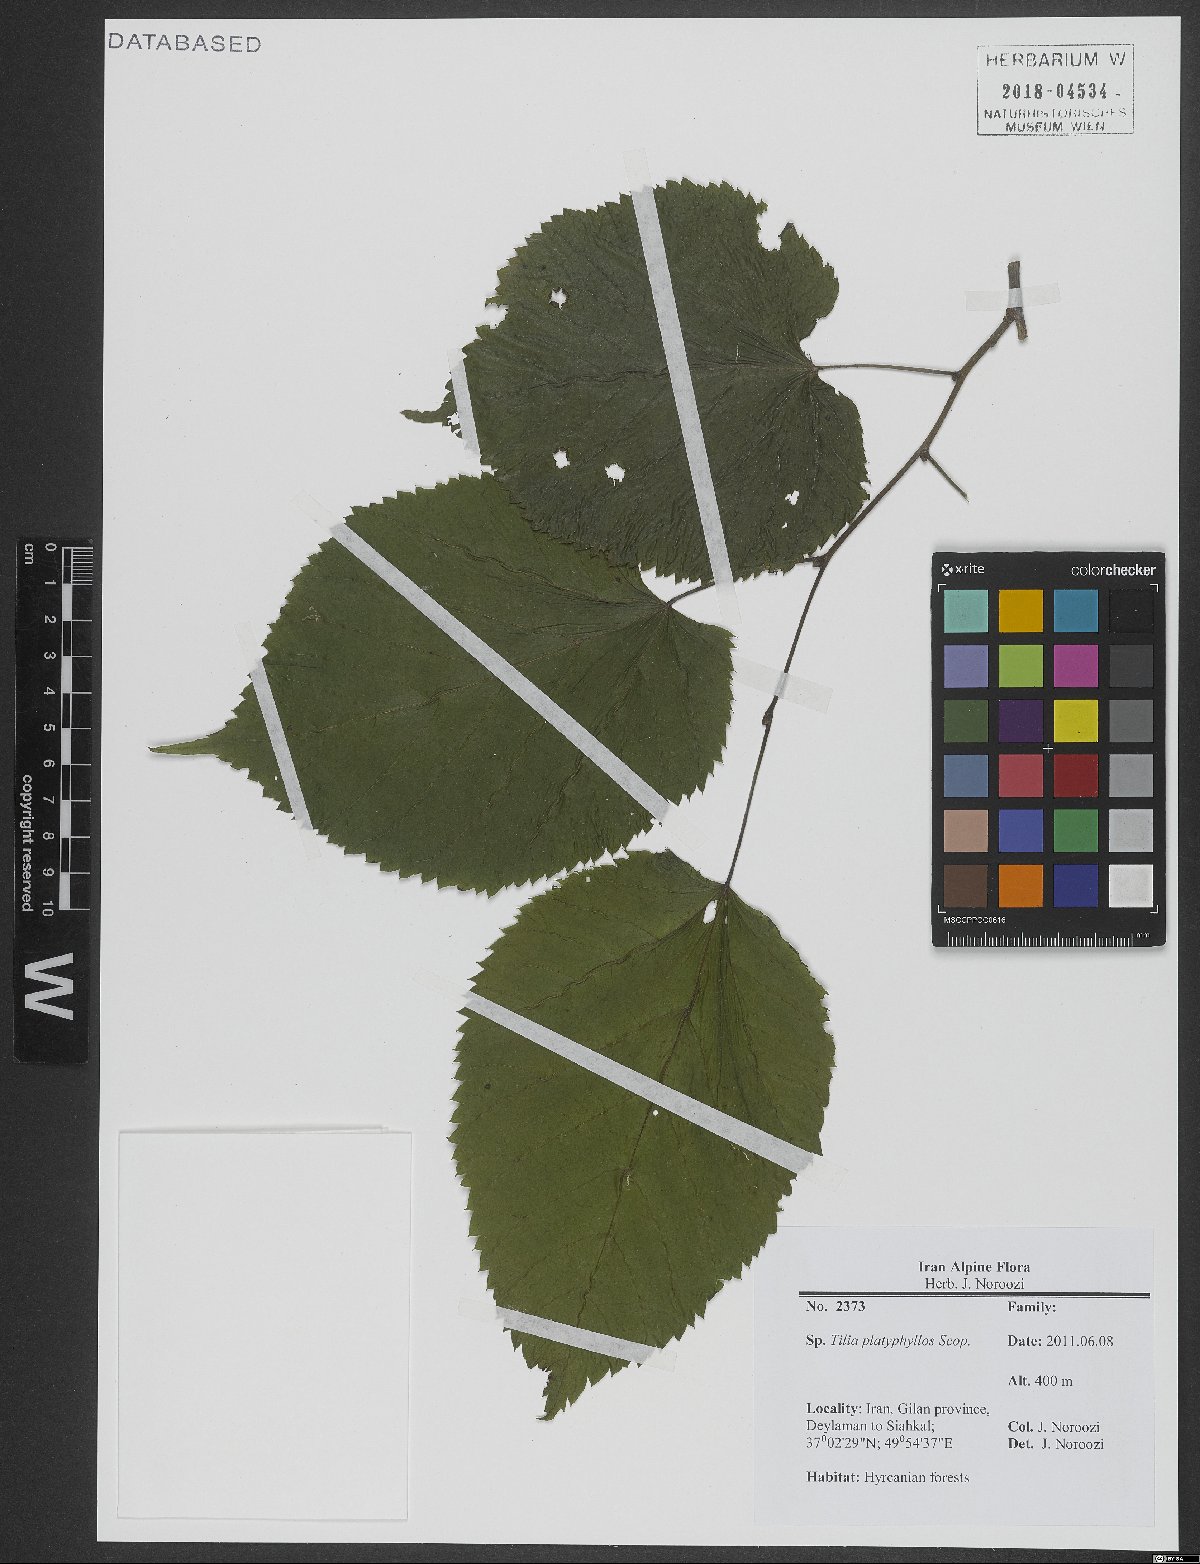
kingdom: Plantae
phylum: Tracheophyta
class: Magnoliopsida
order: Malvales
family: Malvaceae
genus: Tilia
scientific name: Tilia platyphyllos
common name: Large-leaved lime
